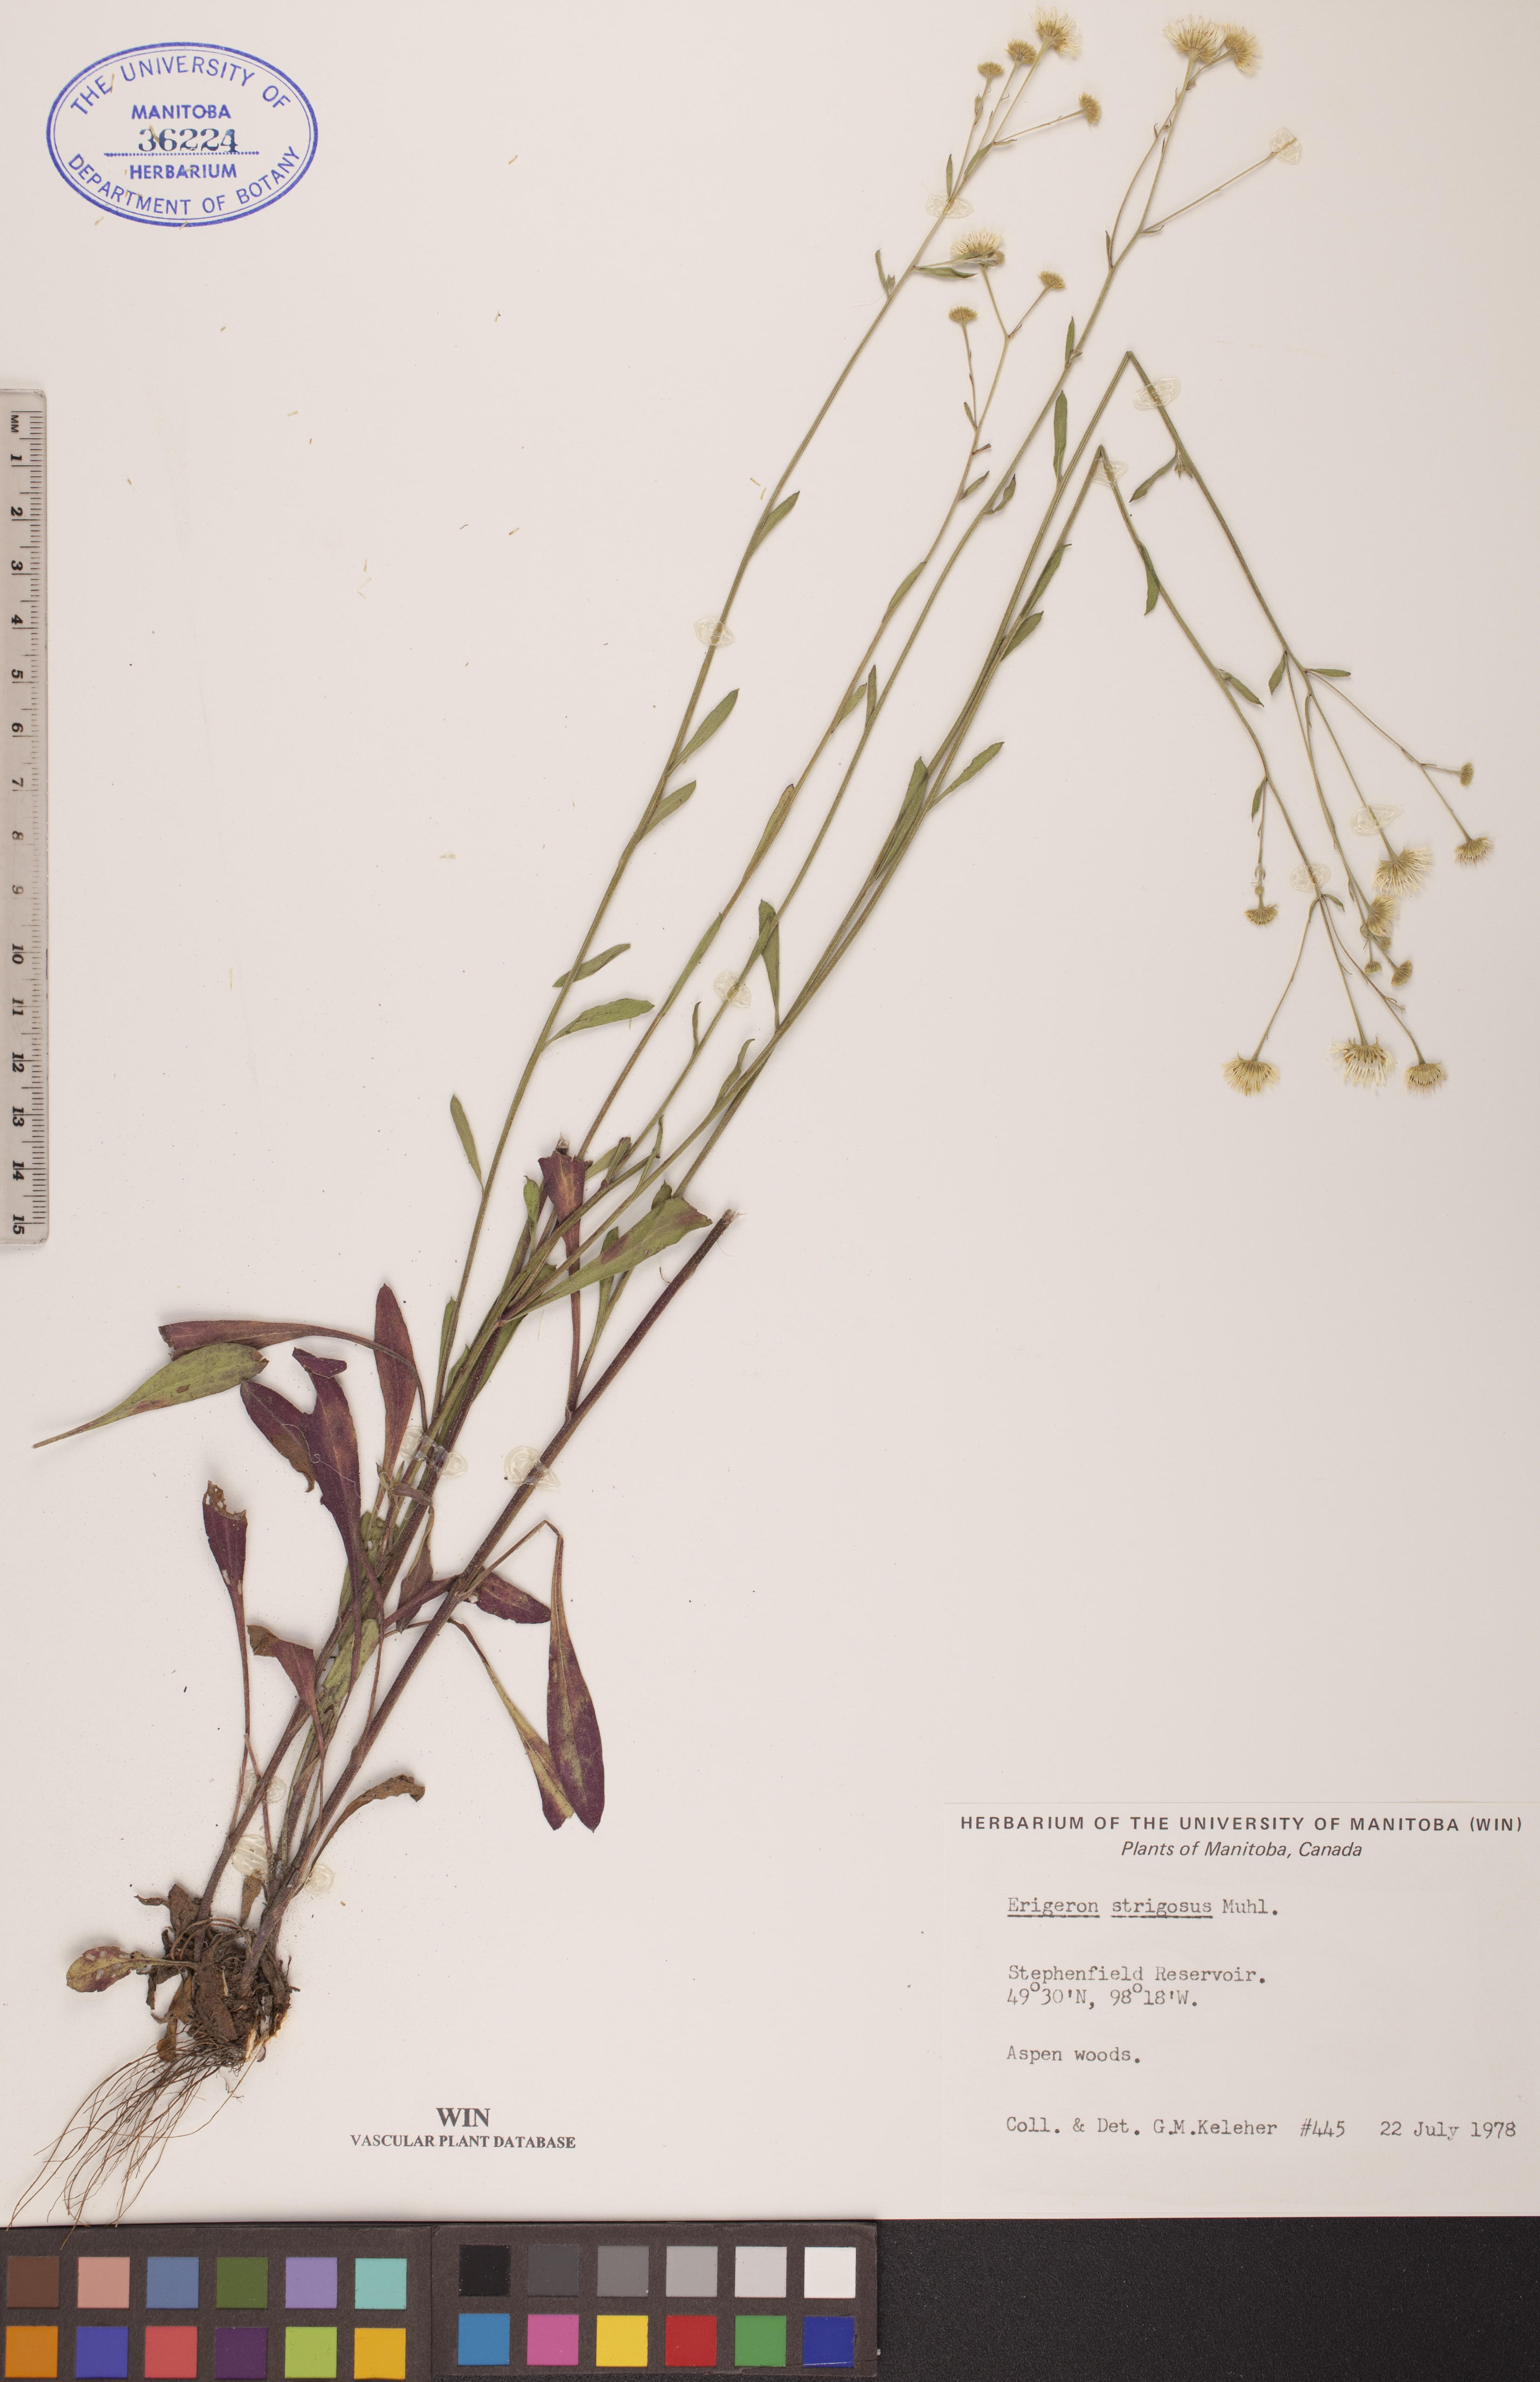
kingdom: Plantae
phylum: Tracheophyta
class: Magnoliopsida
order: Asterales
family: Asteraceae
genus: Erigeron
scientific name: Erigeron strigosus
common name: Common eastern fleabane
